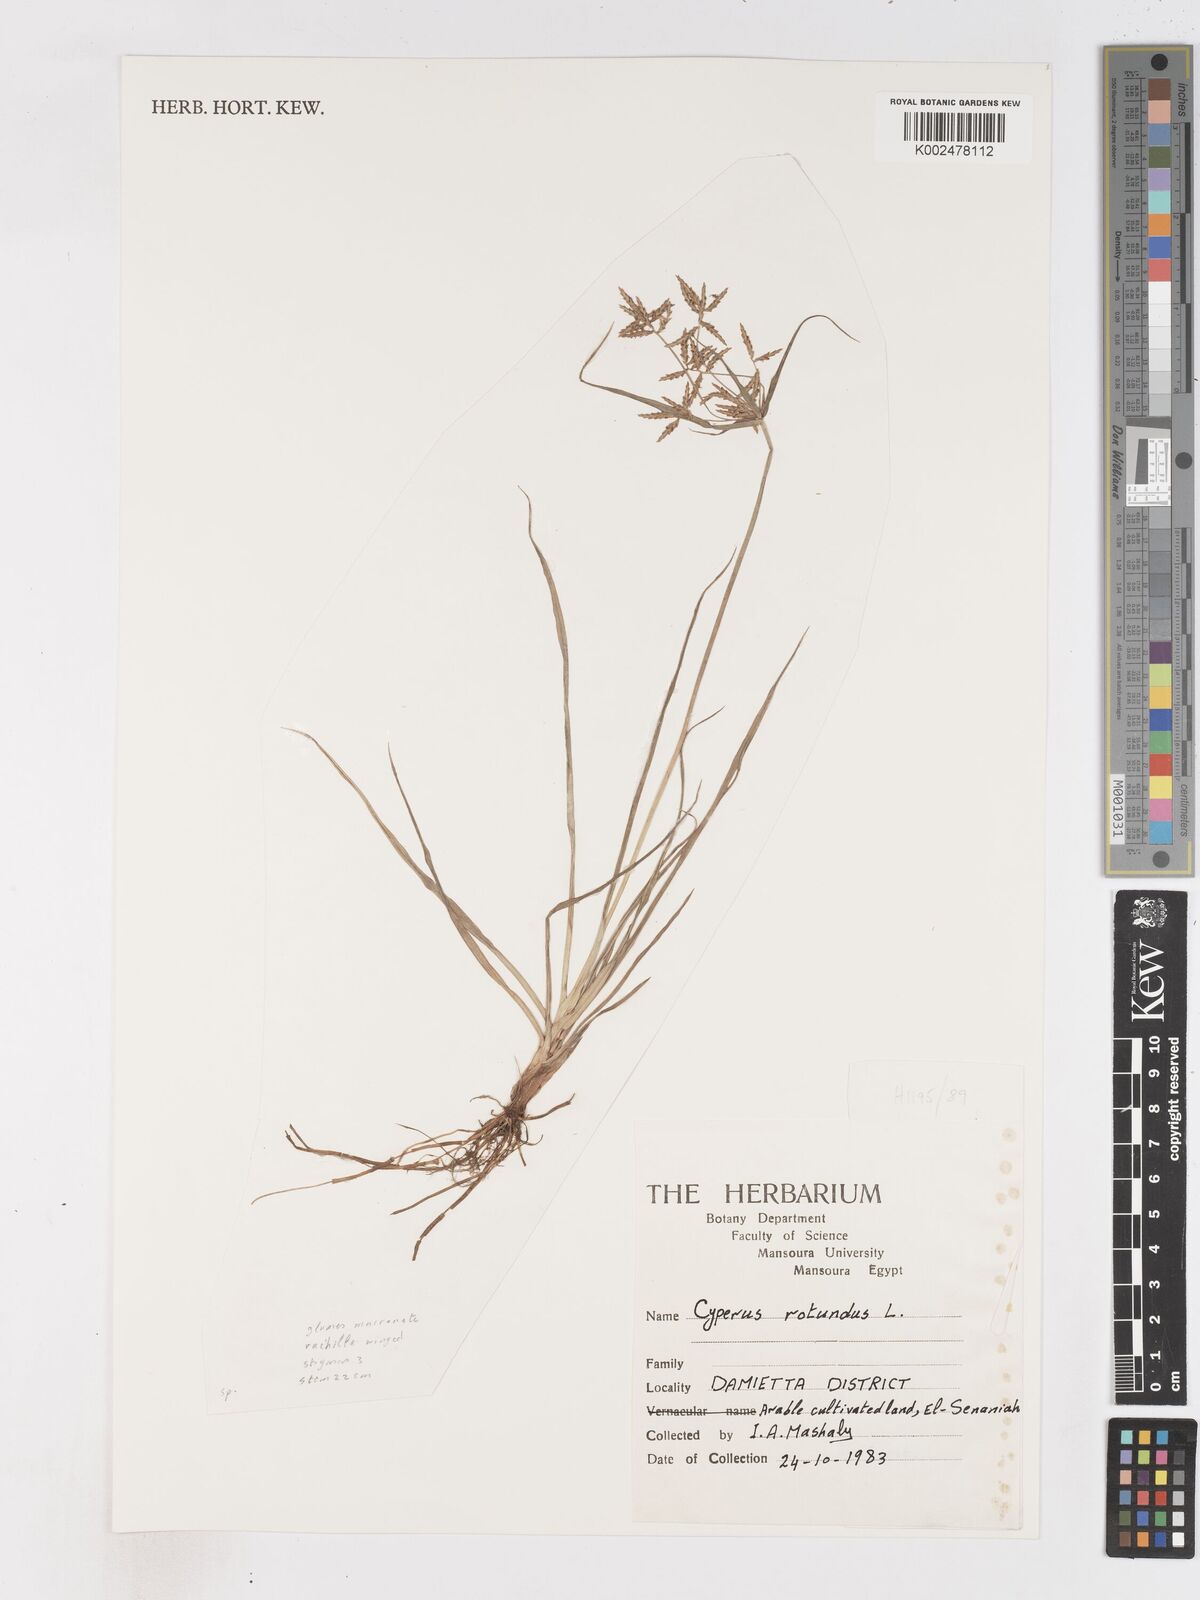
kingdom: Plantae
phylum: Tracheophyta
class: Liliopsida
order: Poales
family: Cyperaceae
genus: Cyperus
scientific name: Cyperus rotundus
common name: Nutgrass
